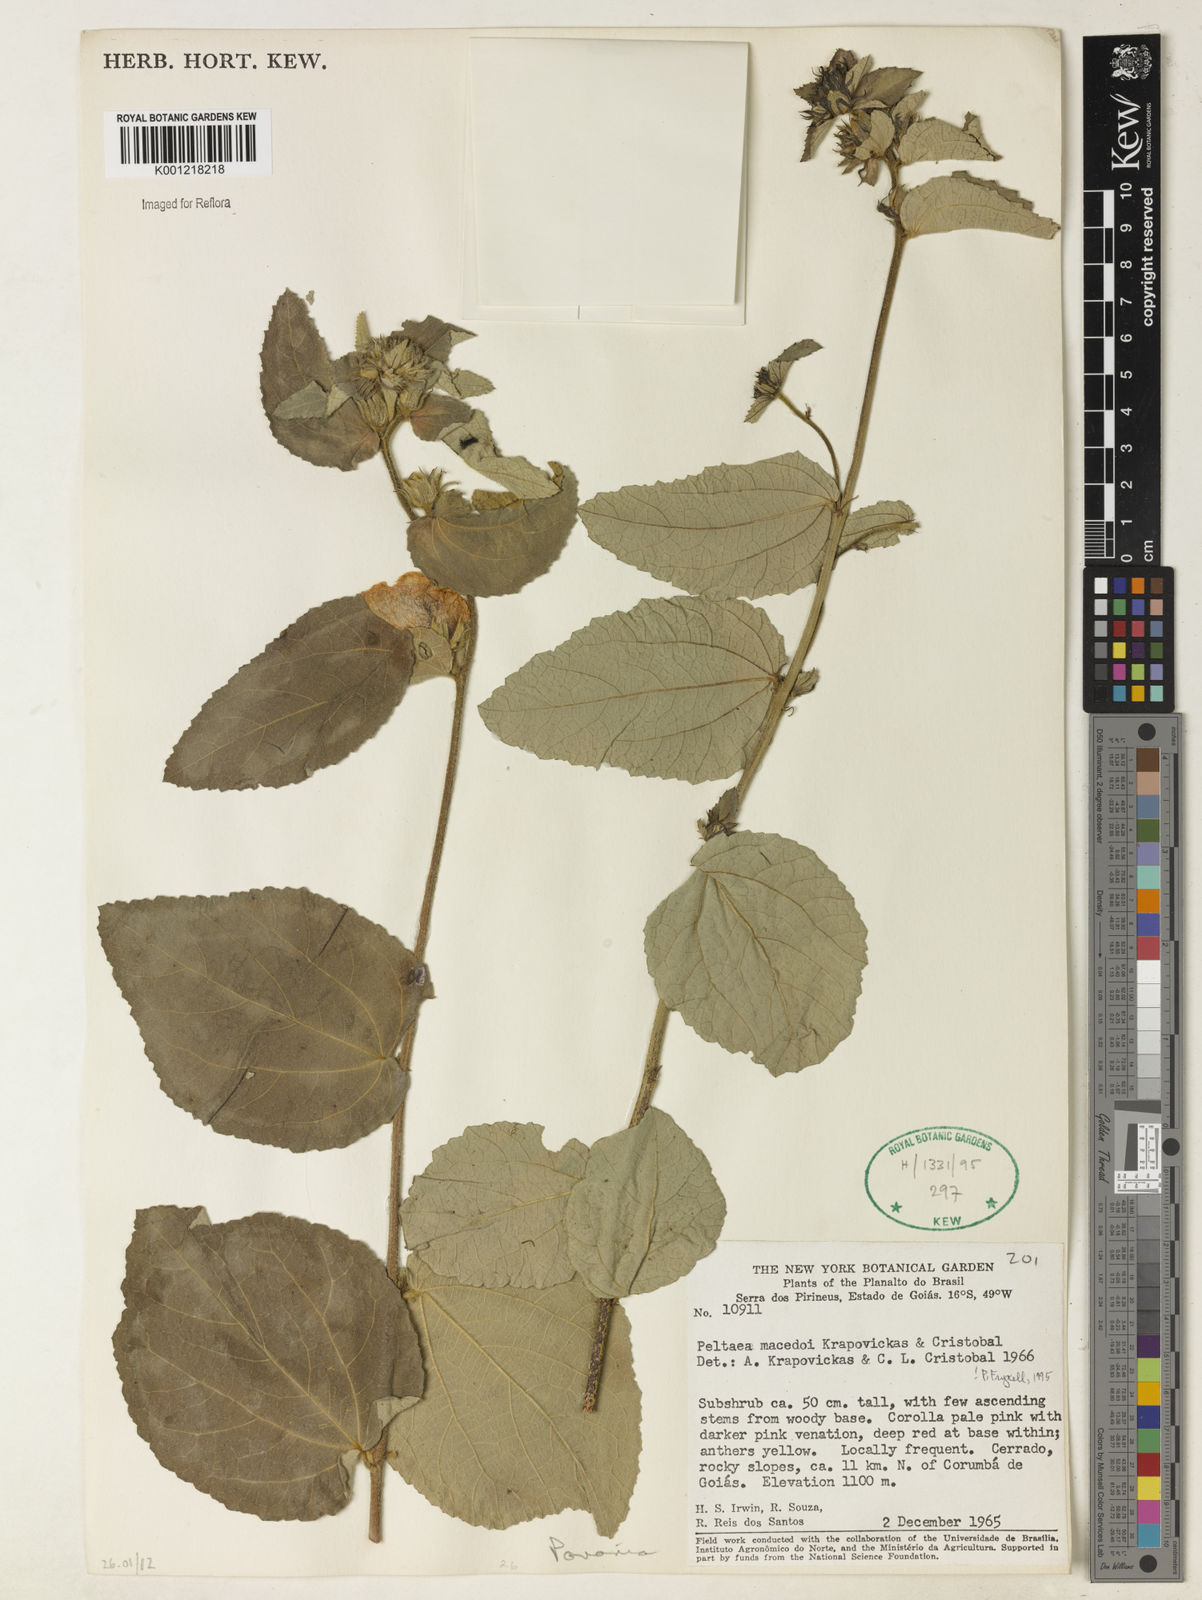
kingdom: Plantae
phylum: Tracheophyta
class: Magnoliopsida
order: Malvales
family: Malvaceae
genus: Peltaea
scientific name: Peltaea
